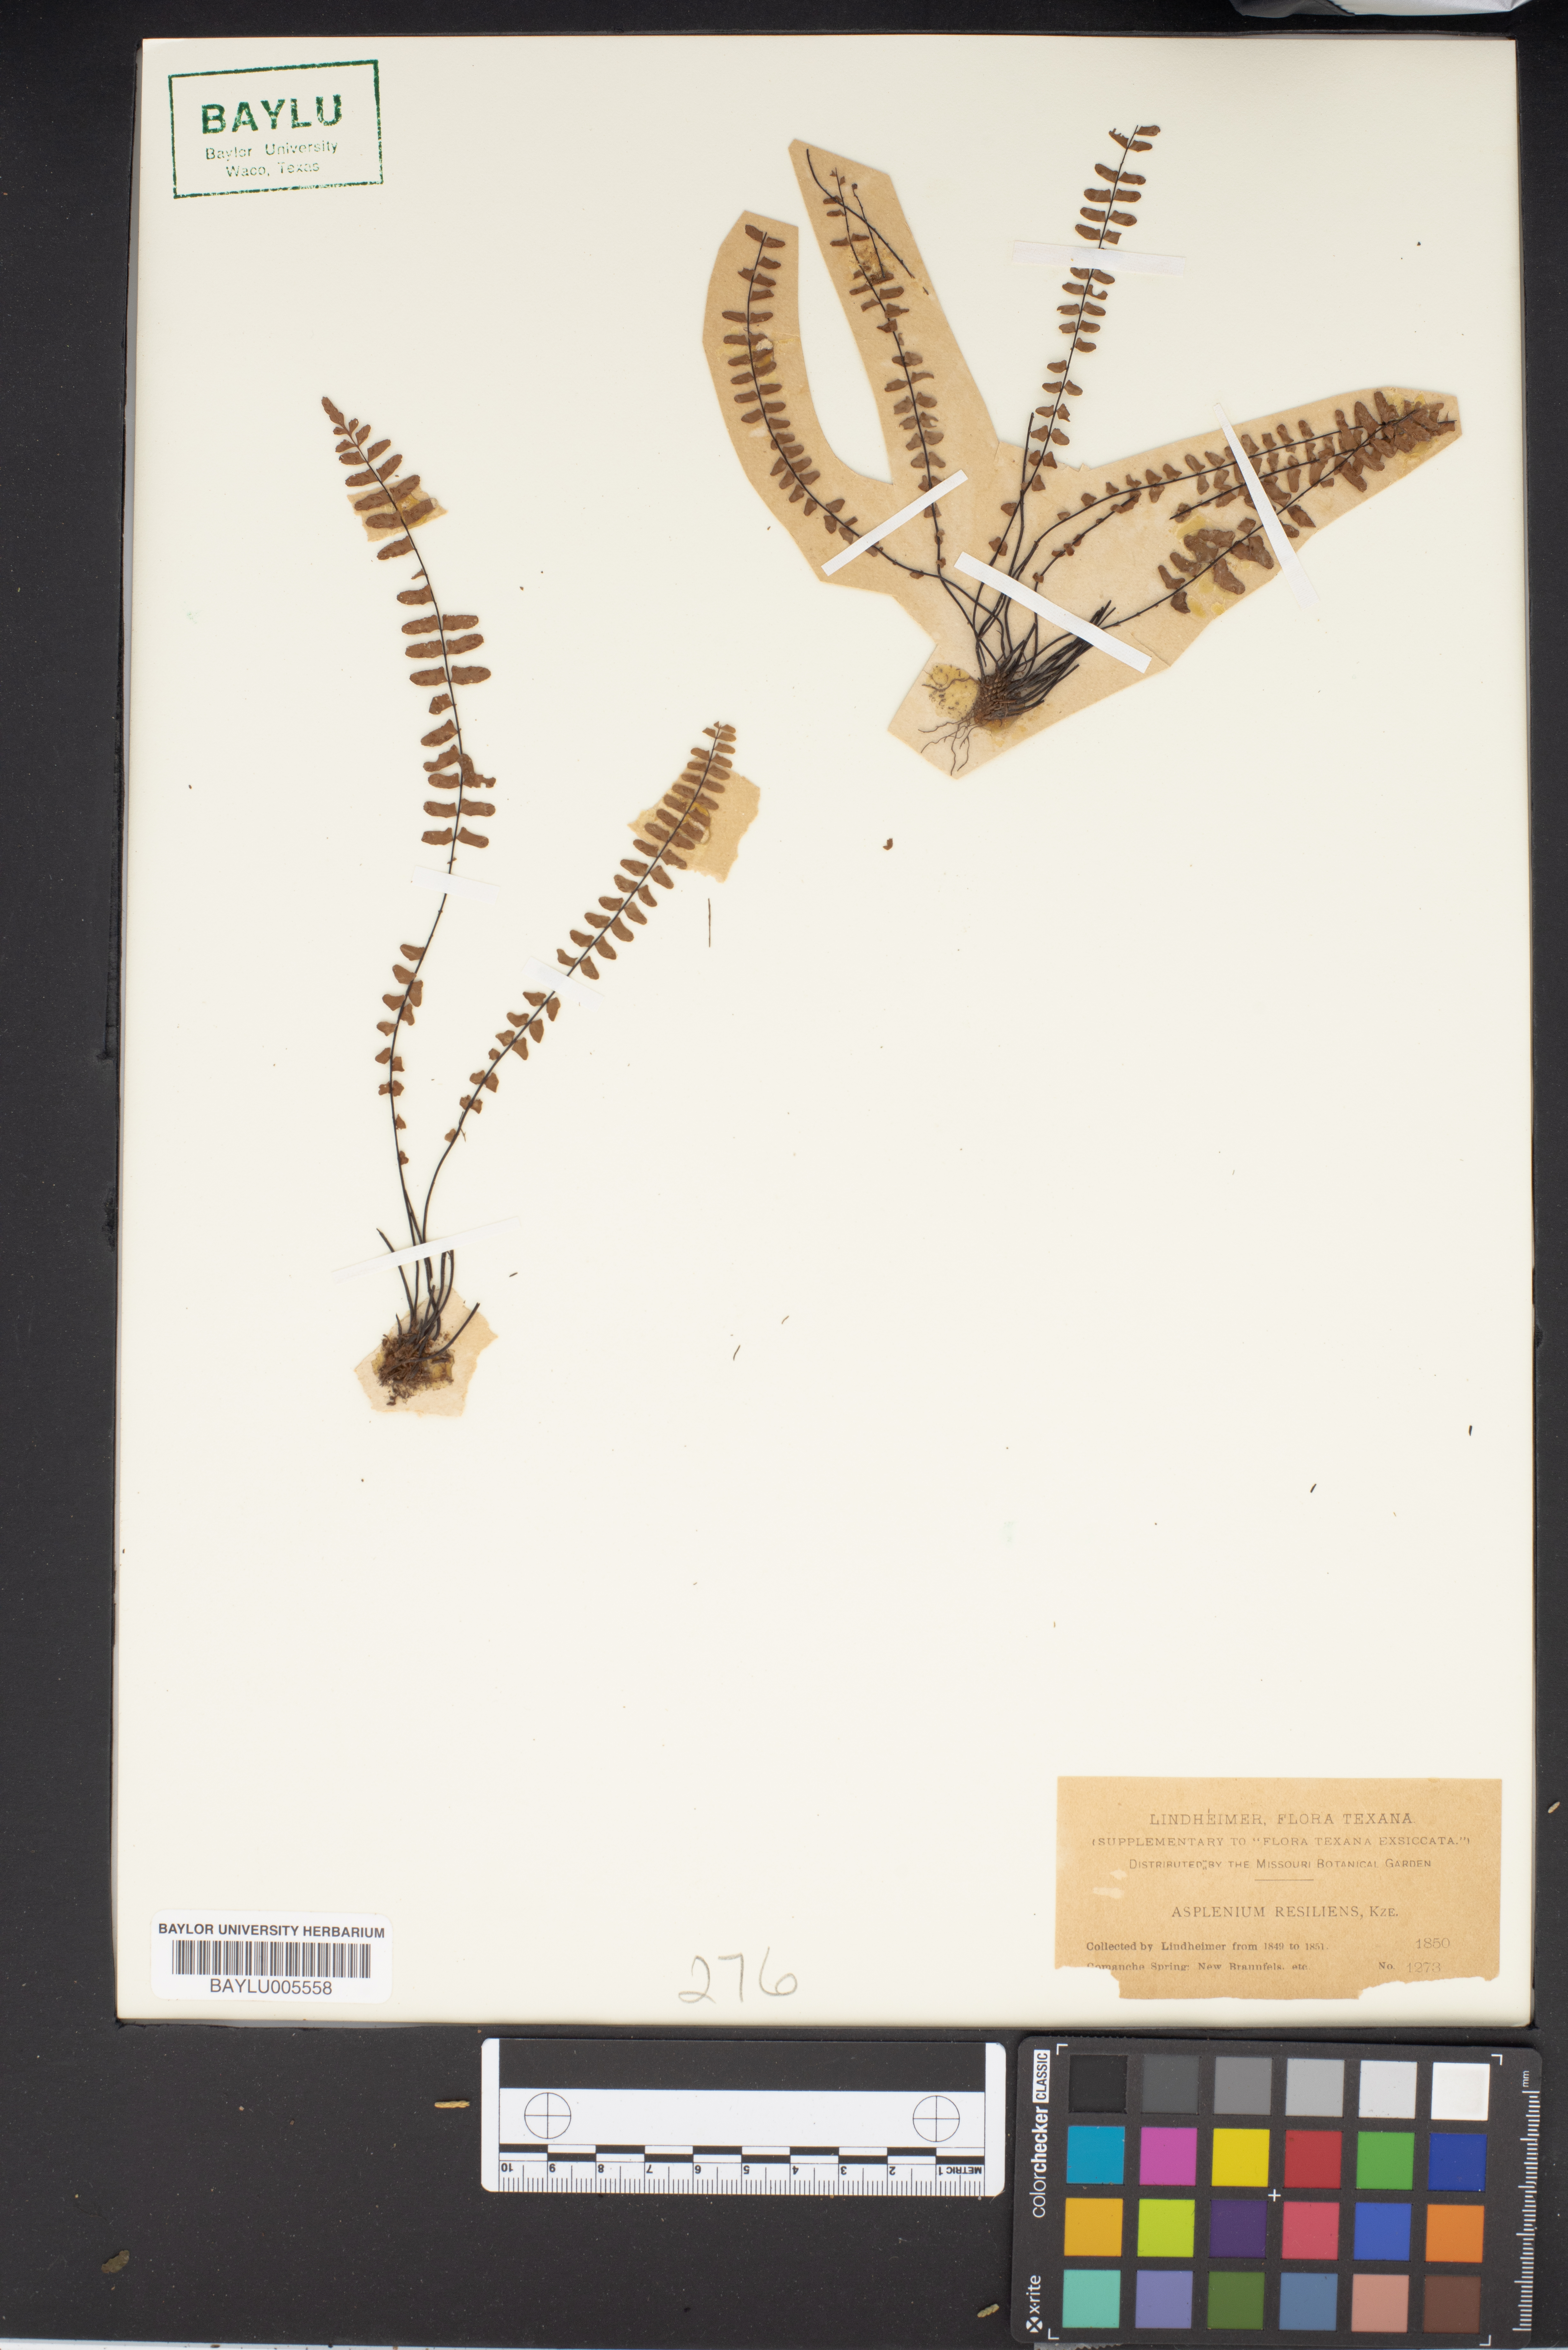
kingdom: Plantae
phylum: Tracheophyta
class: Polypodiopsida
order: Polypodiales
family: Aspleniaceae
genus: Asplenium
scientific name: Asplenium resiliens
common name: Blackstem spleenwort
